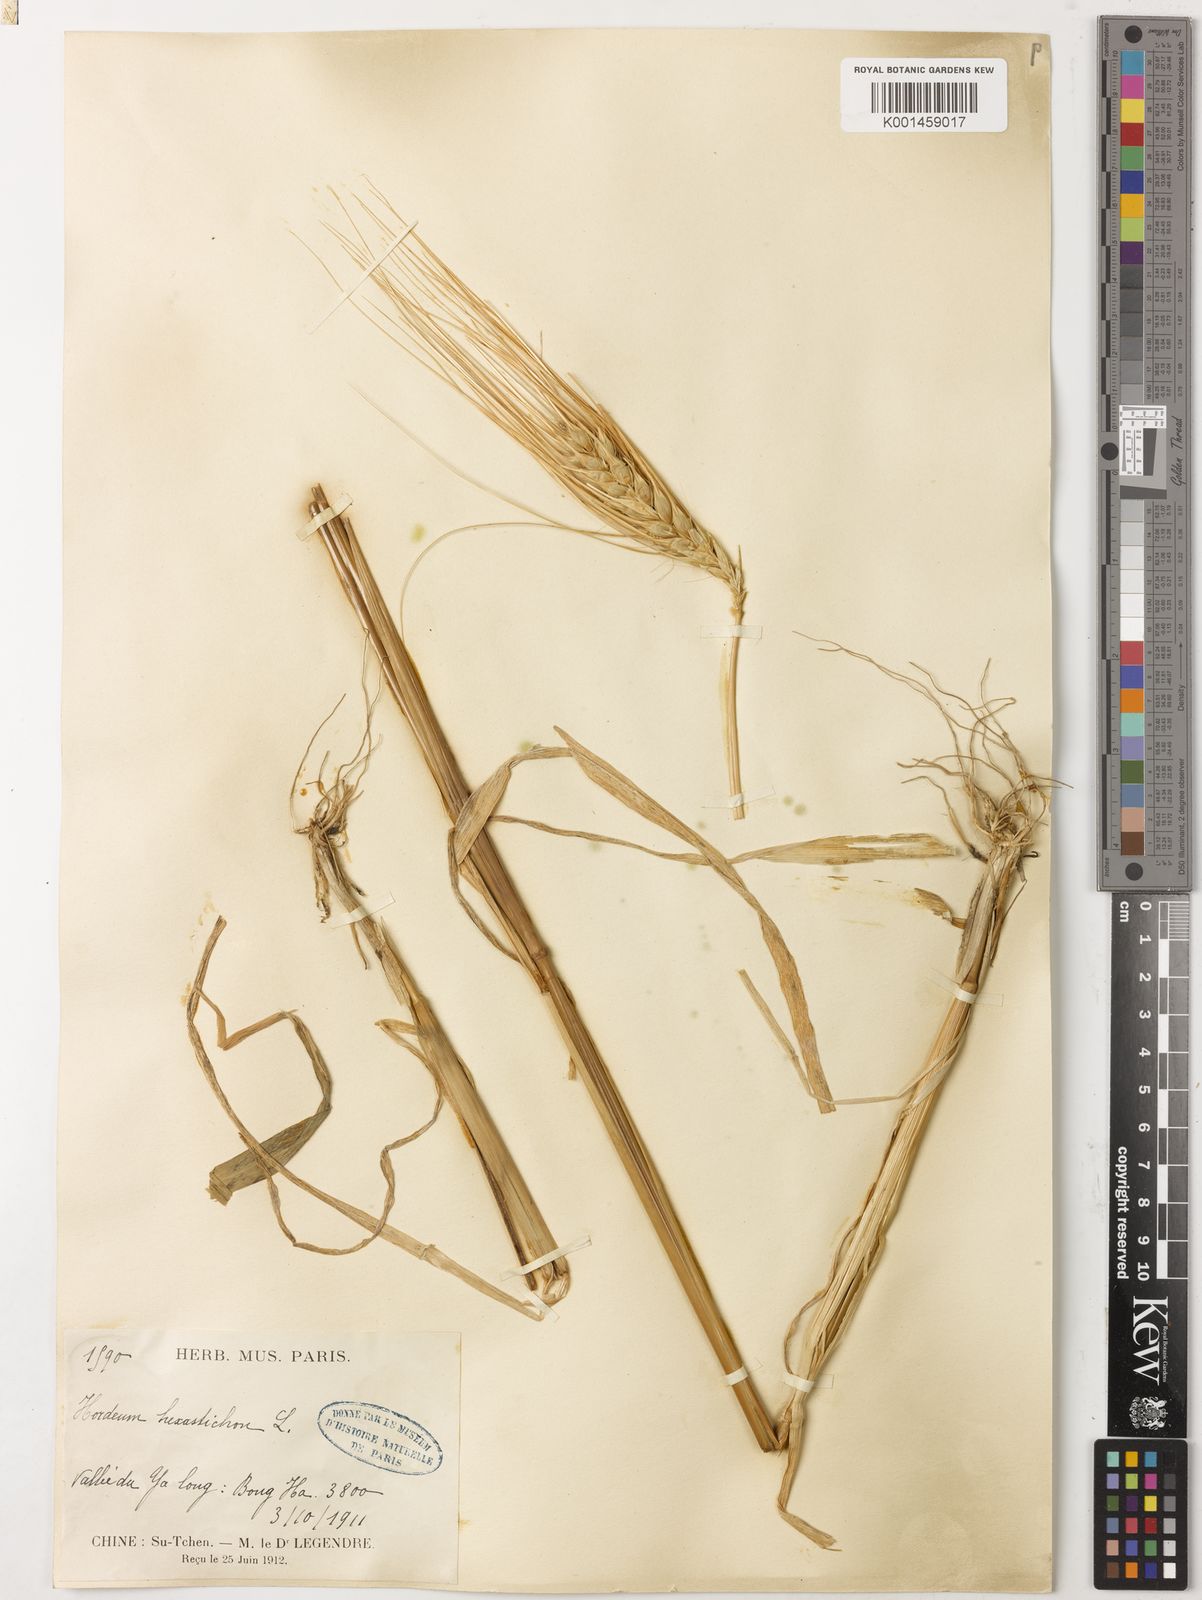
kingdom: Plantae
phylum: Tracheophyta
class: Liliopsida
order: Poales
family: Poaceae
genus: Hordeum
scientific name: Hordeum vulgare
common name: Common barley
